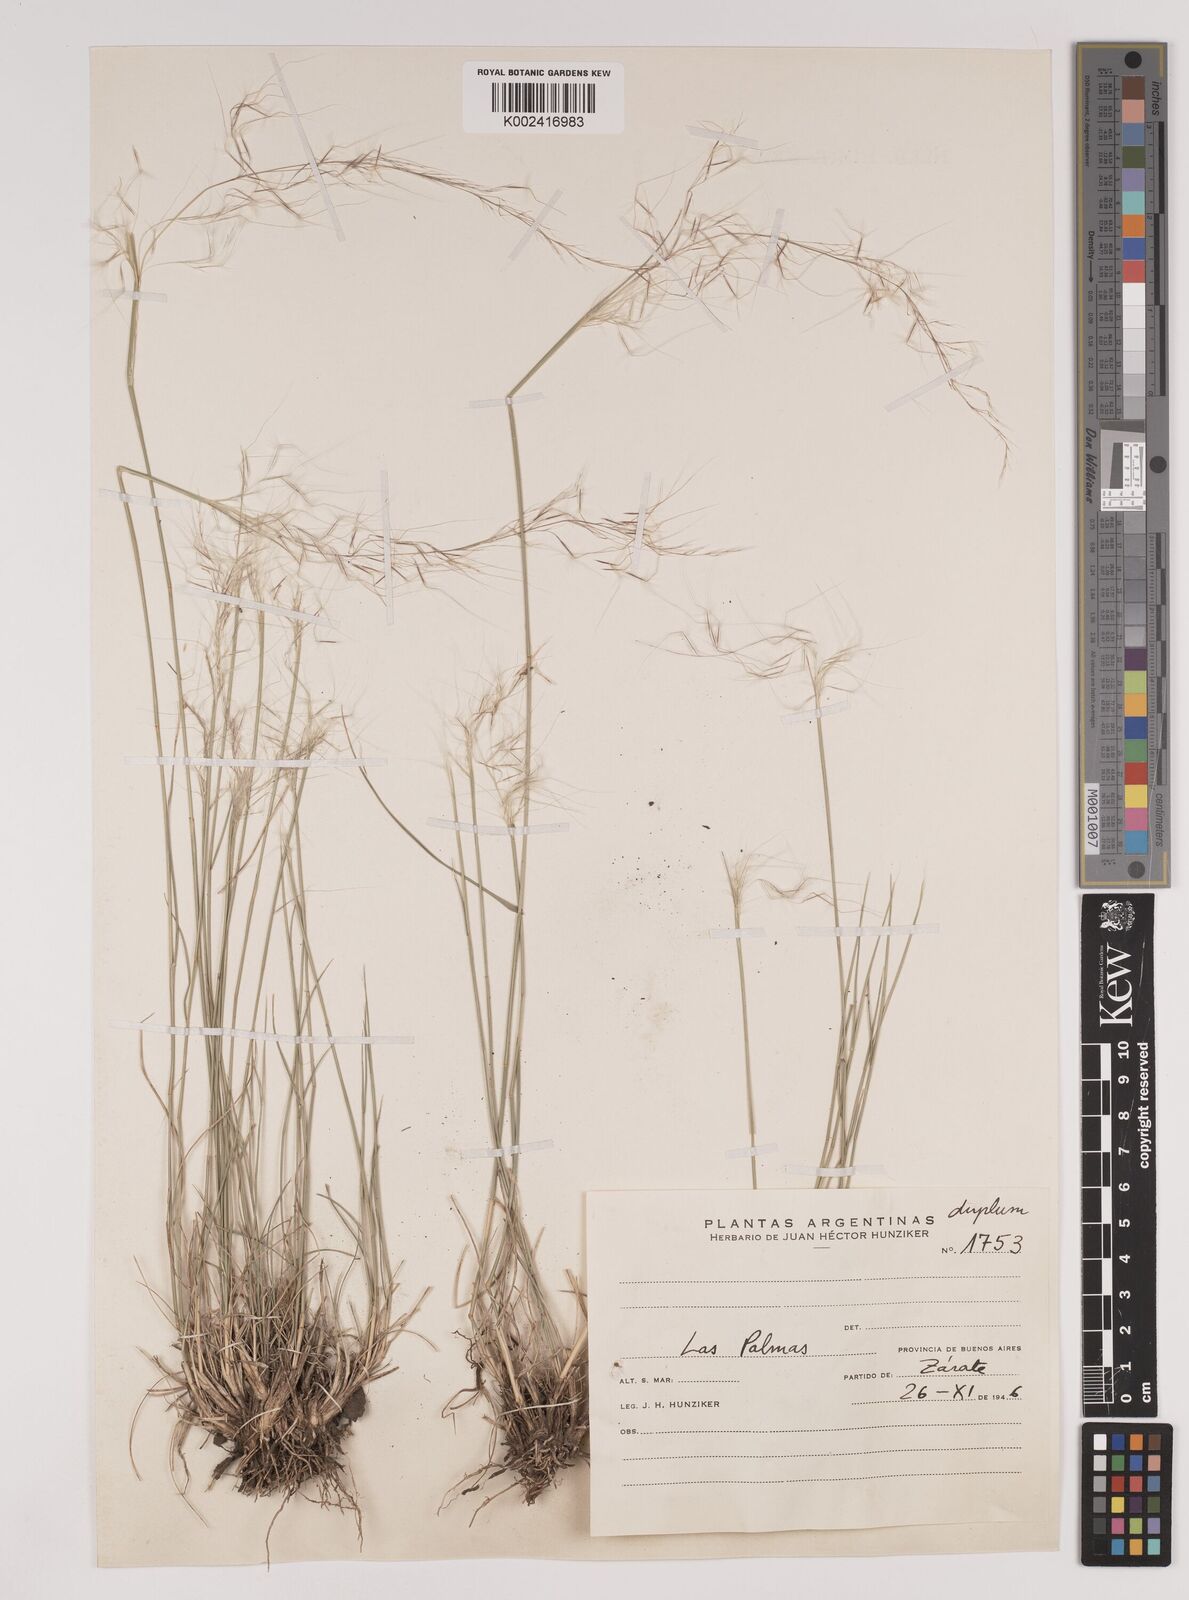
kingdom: Plantae
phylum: Tracheophyta
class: Liliopsida
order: Poales
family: Poaceae
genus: Jarava
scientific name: Jarava plumosa
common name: South american rice grass
